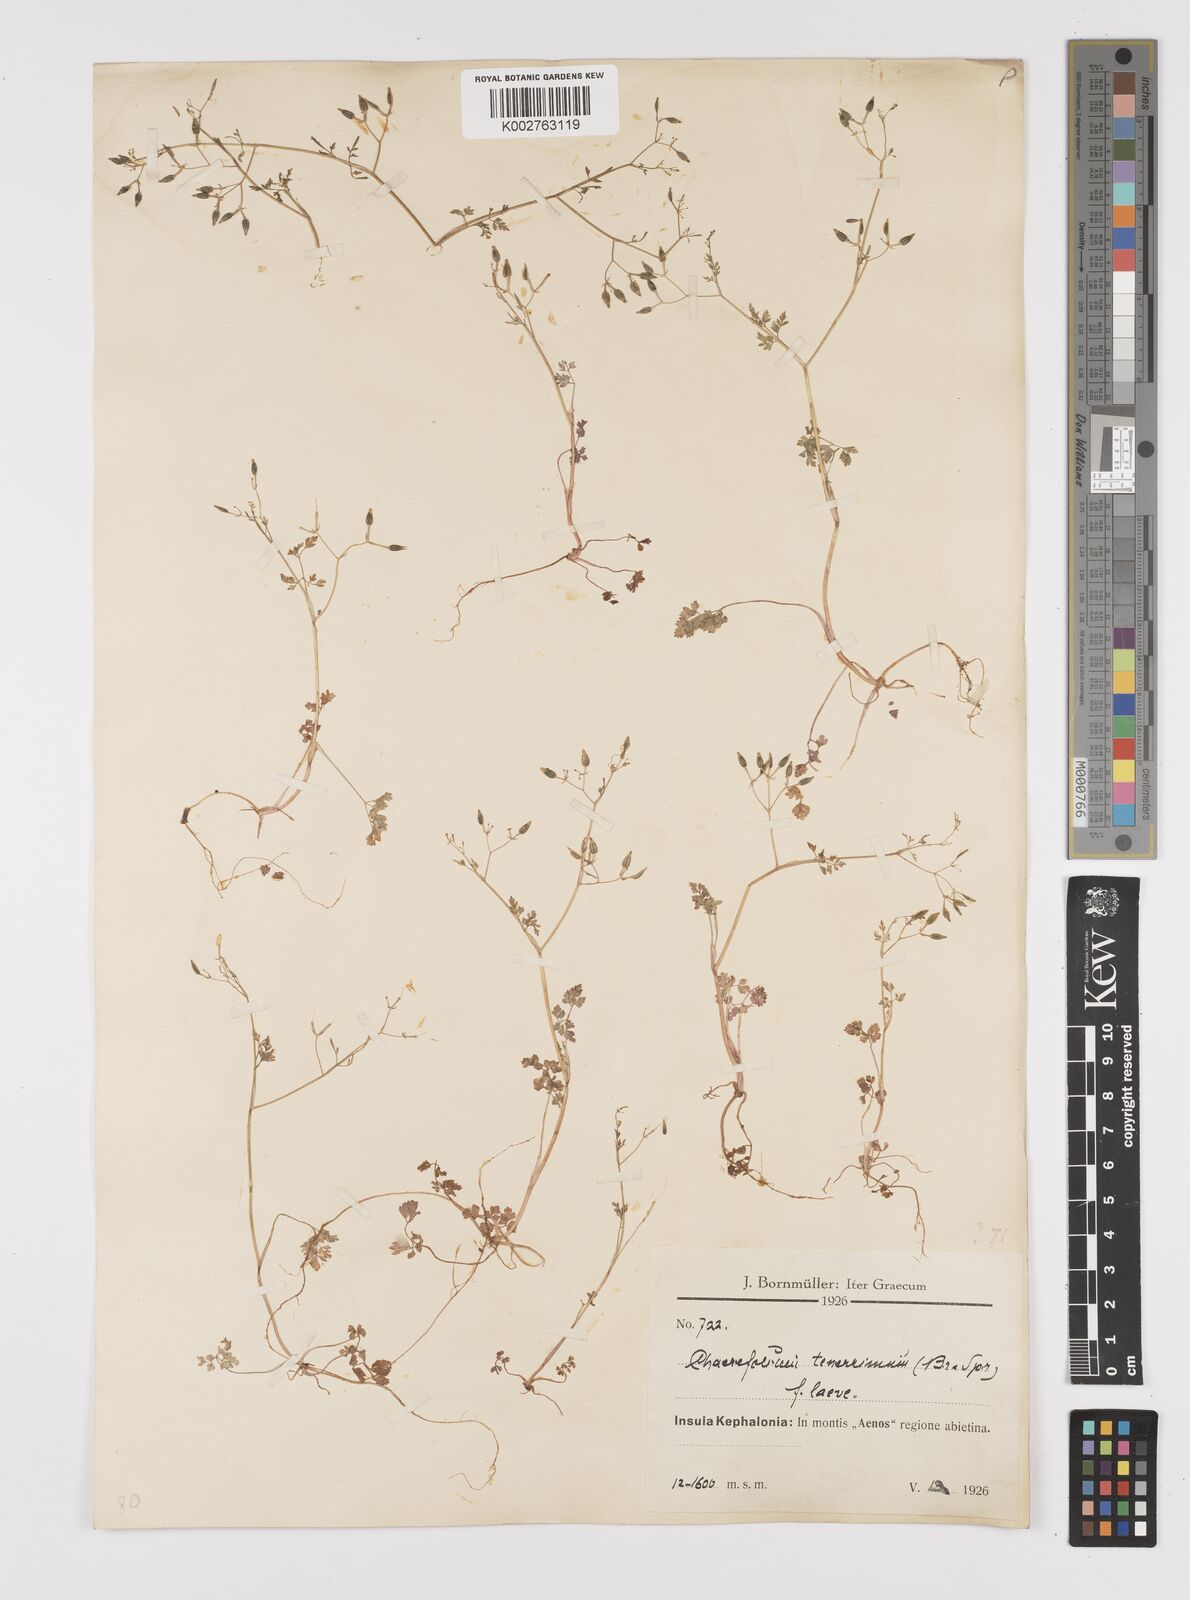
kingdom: Plantae
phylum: Tracheophyta
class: Magnoliopsida
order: Apiales
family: Apiaceae
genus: Anthriscus
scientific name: Anthriscus tenerrima
